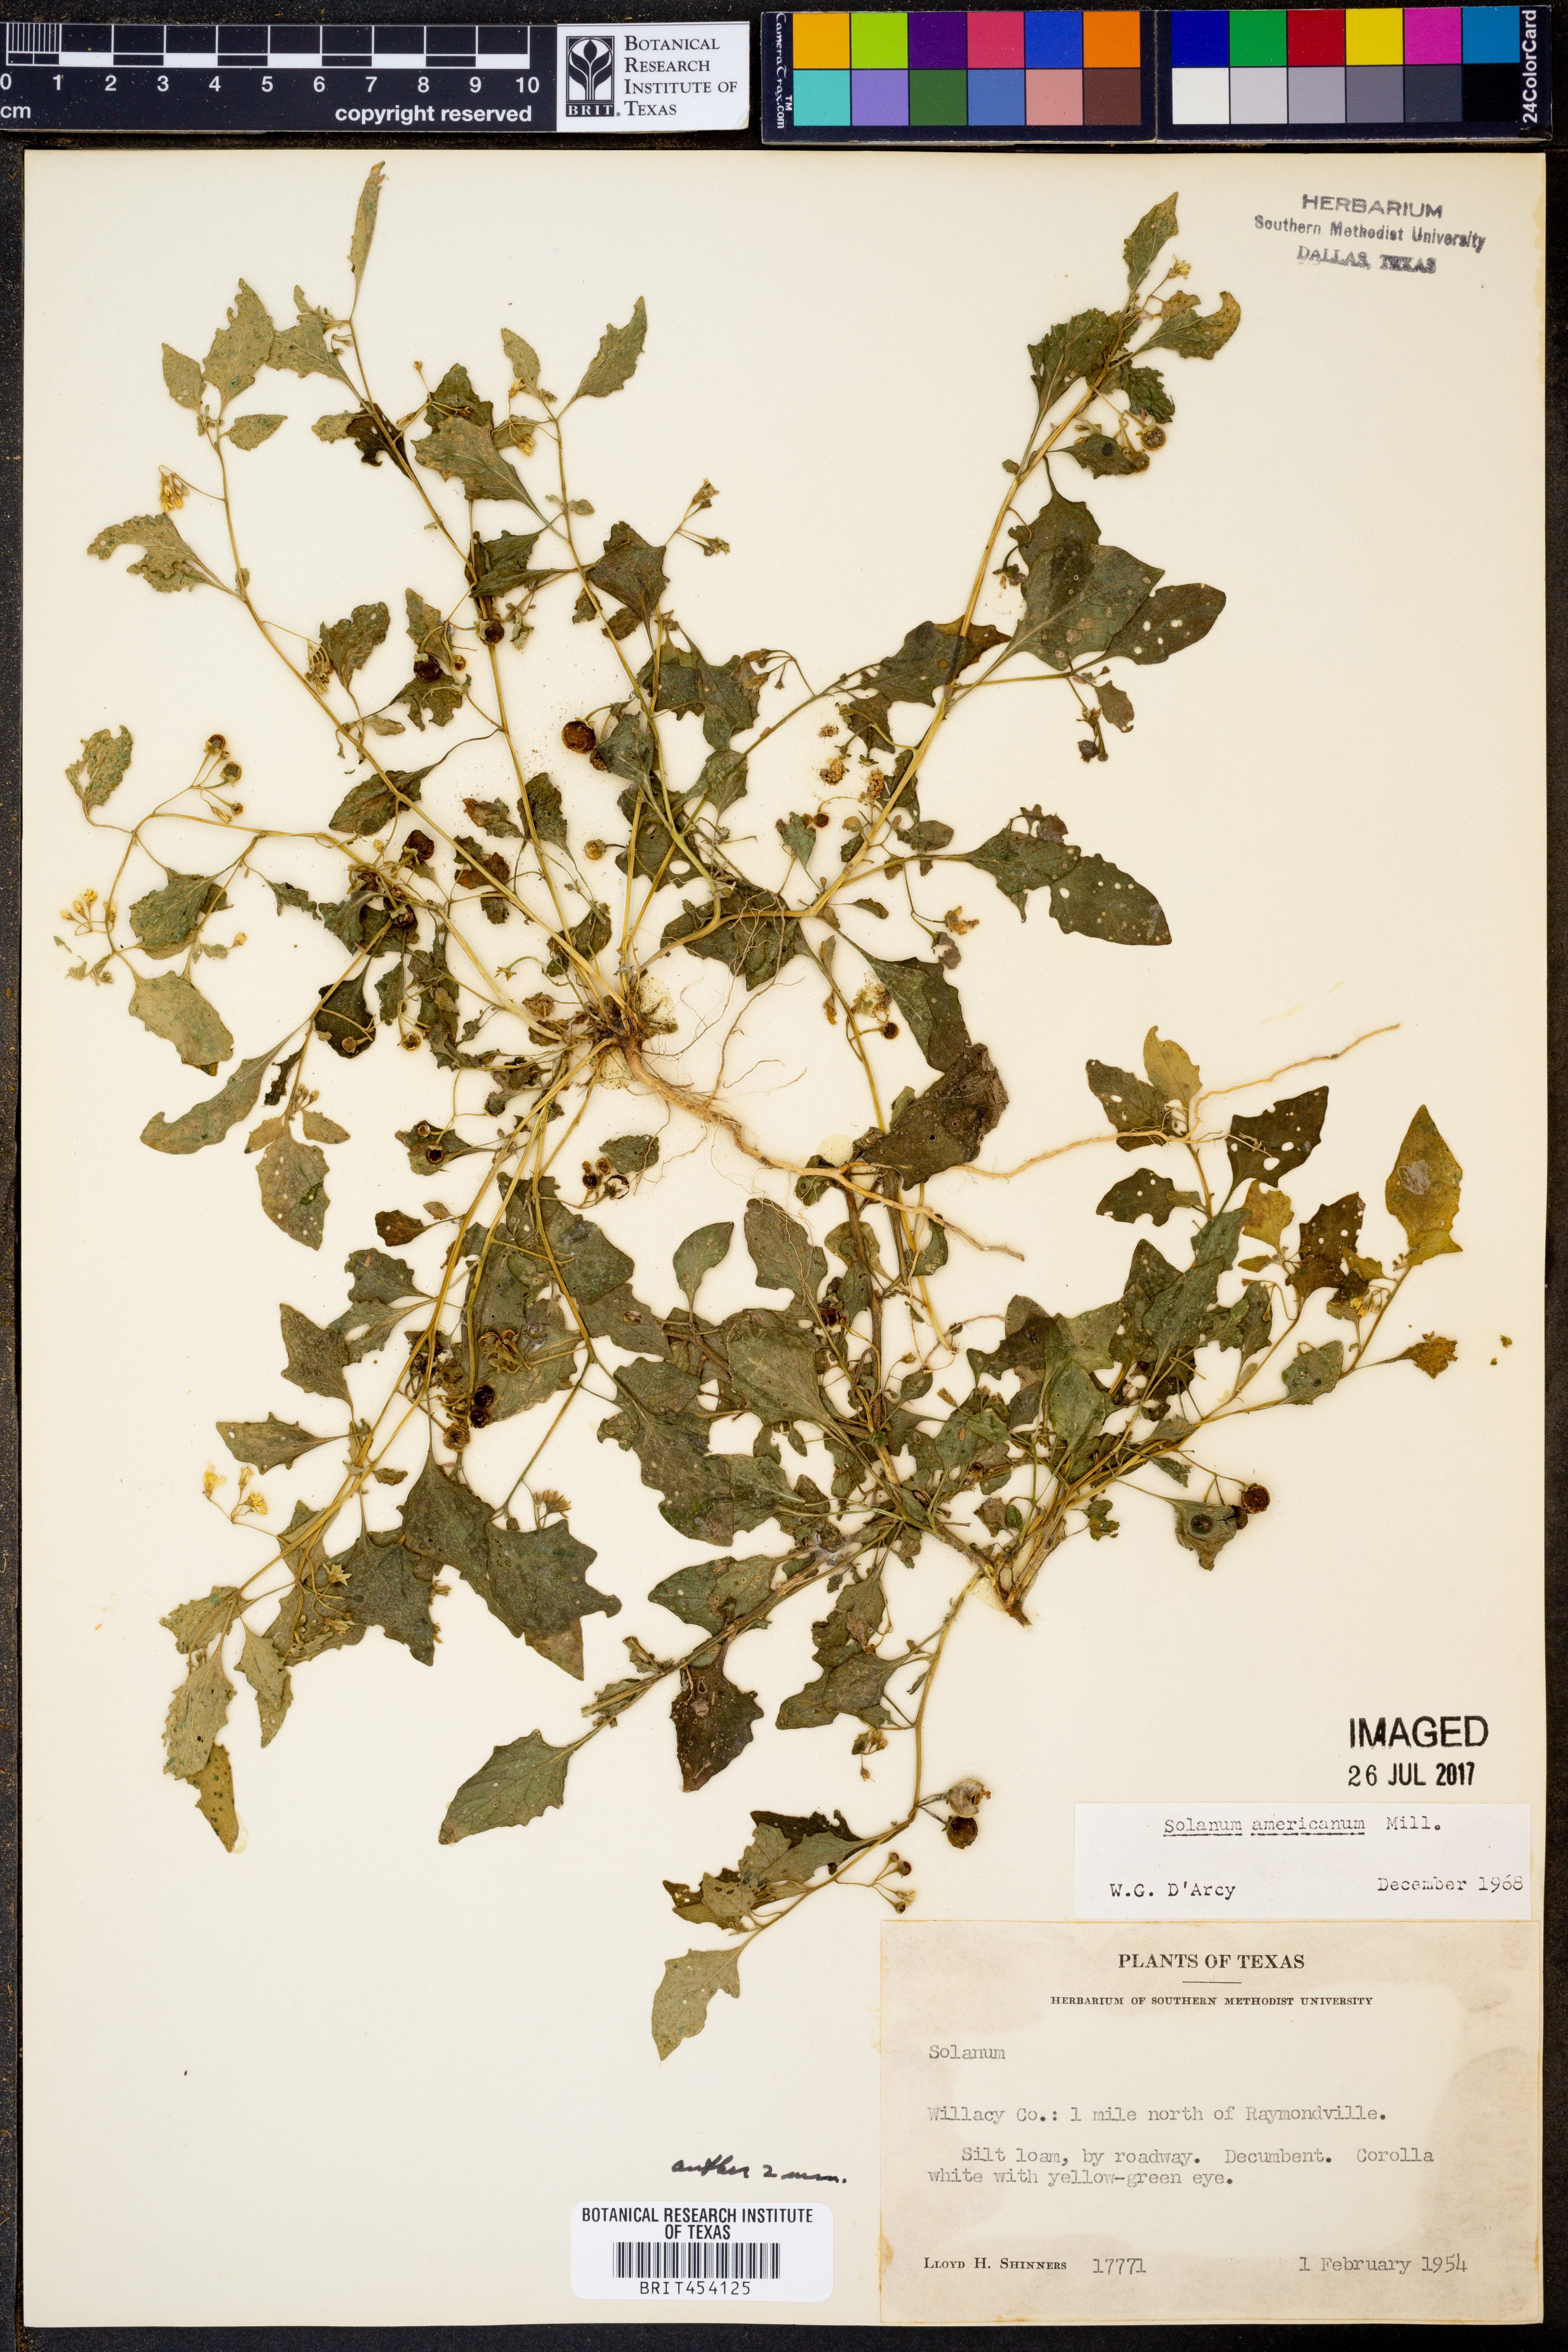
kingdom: Plantae
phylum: Tracheophyta
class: Magnoliopsida
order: Solanales
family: Solanaceae
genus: Solanum
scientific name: Solanum americanum
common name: American black nightshade
